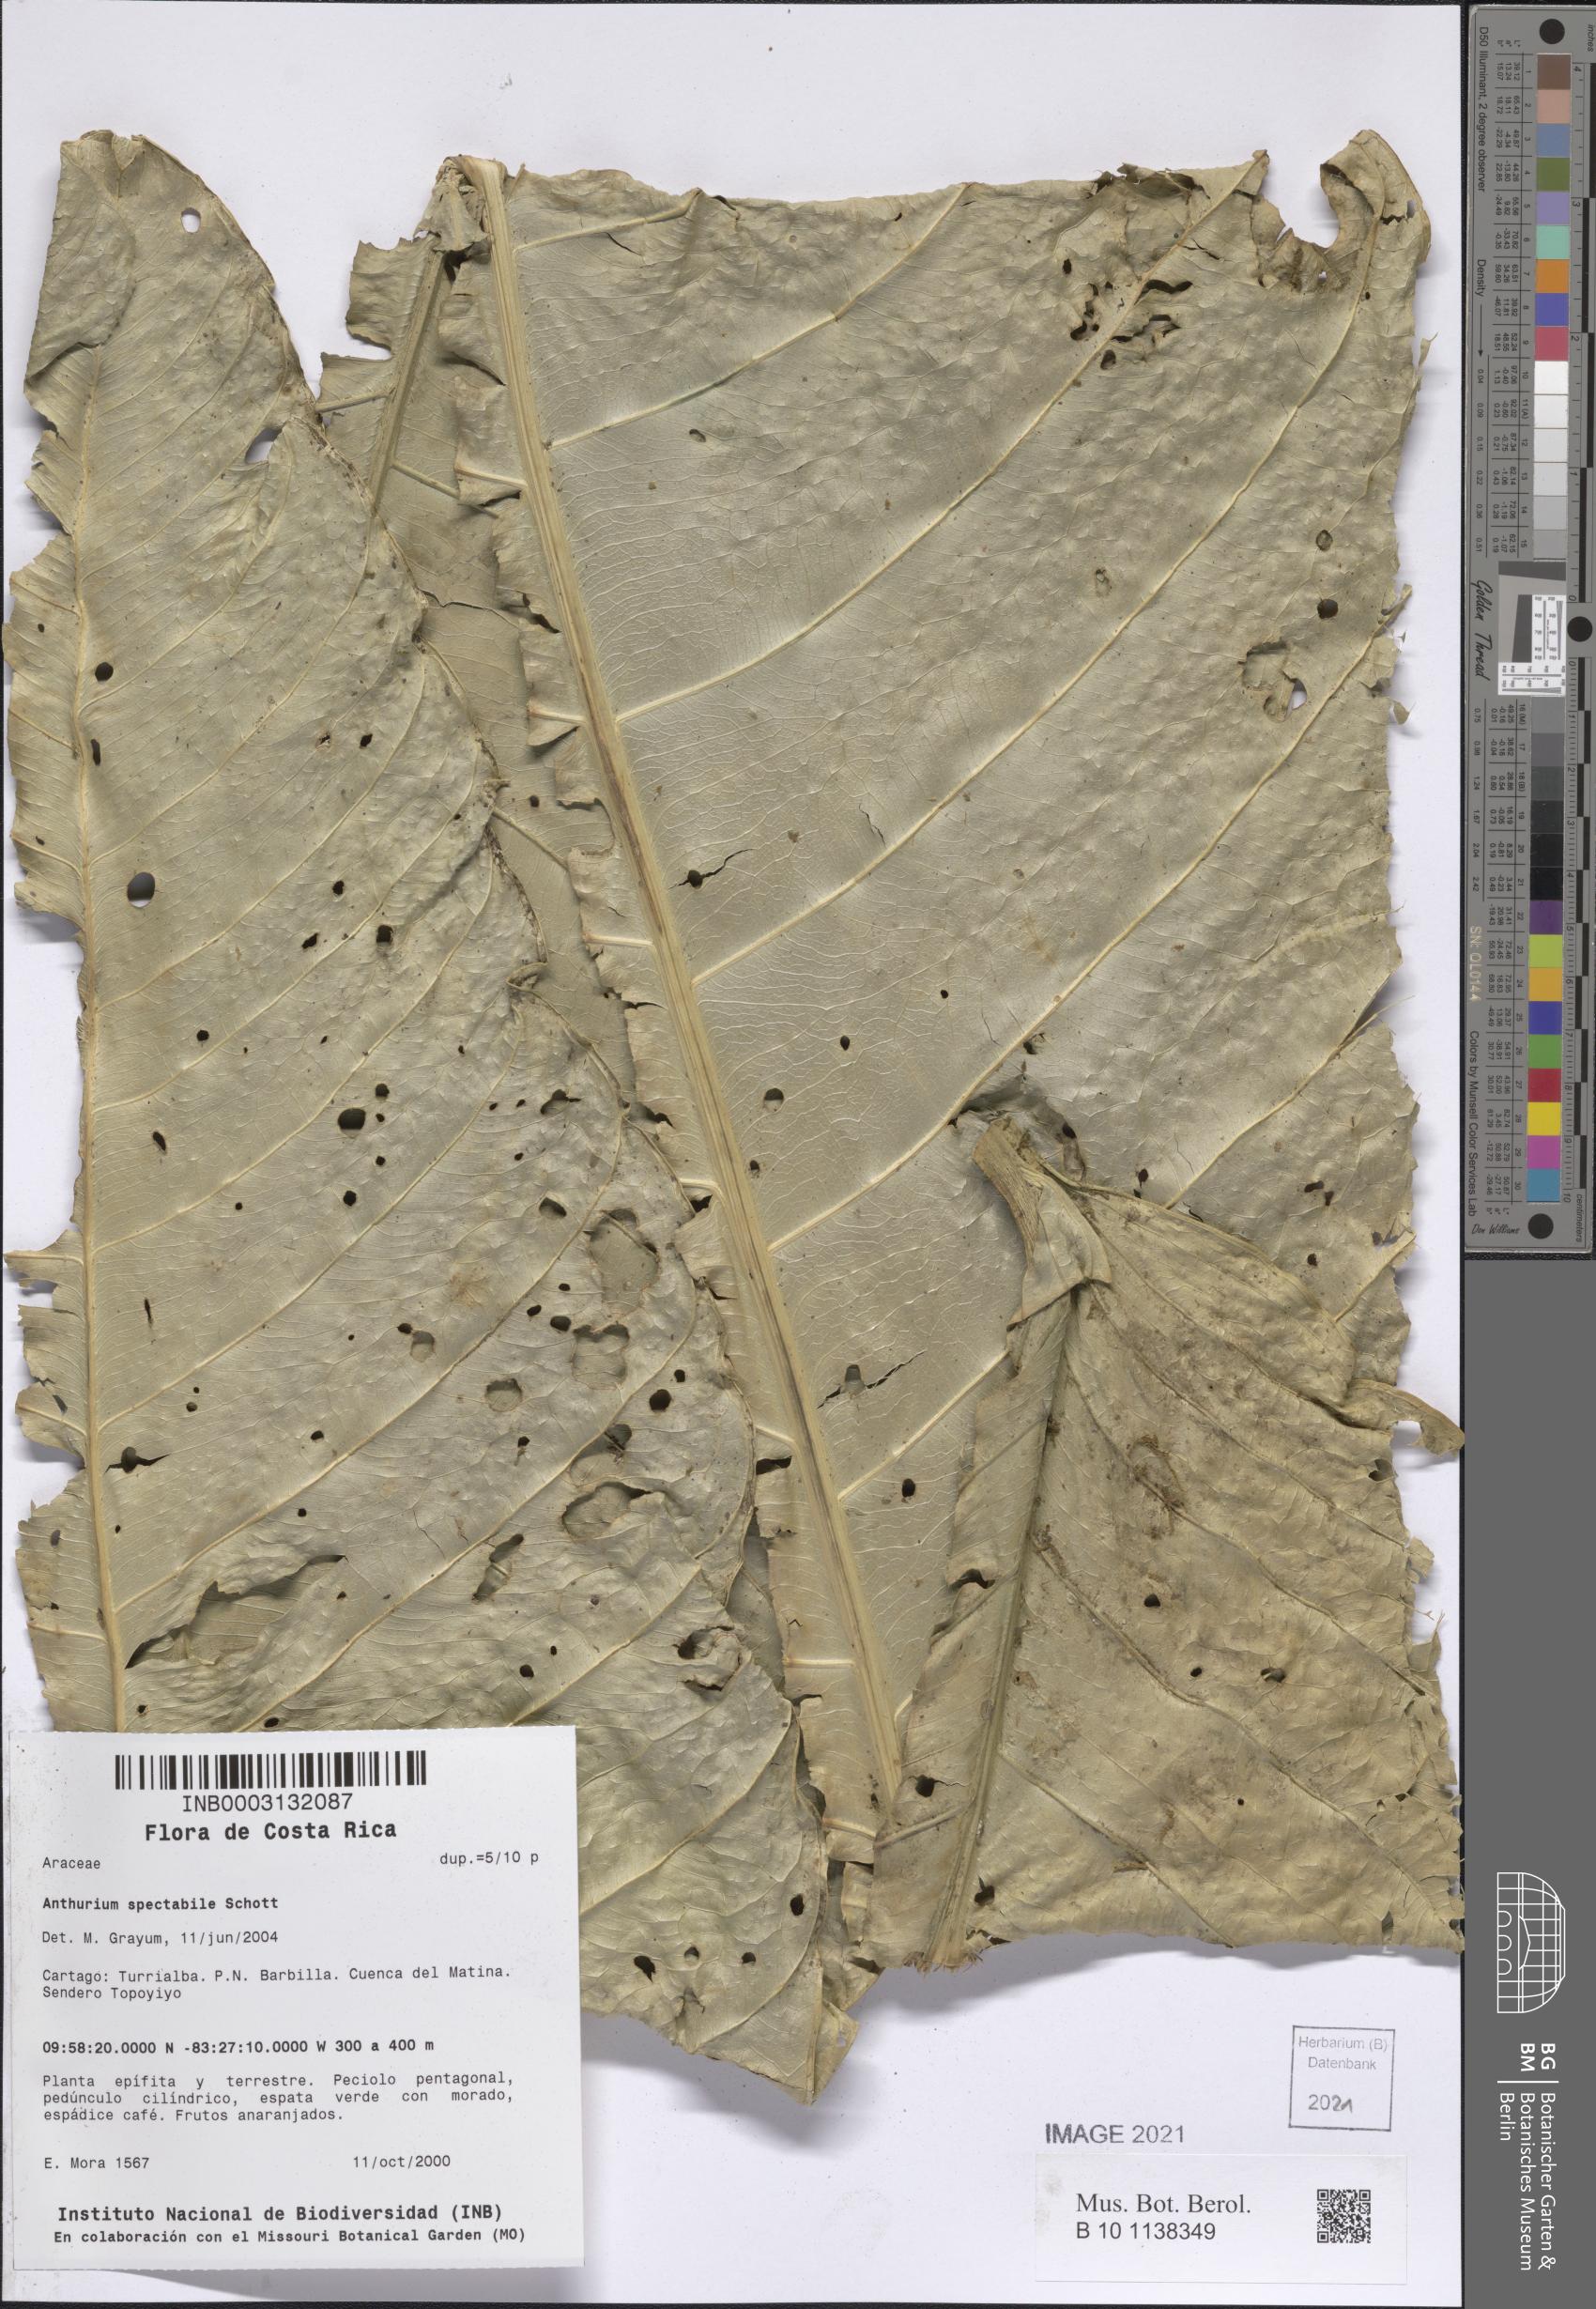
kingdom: Plantae
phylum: Tracheophyta
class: Liliopsida
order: Alismatales
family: Araceae
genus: Anthurium
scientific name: Anthurium spectabile
